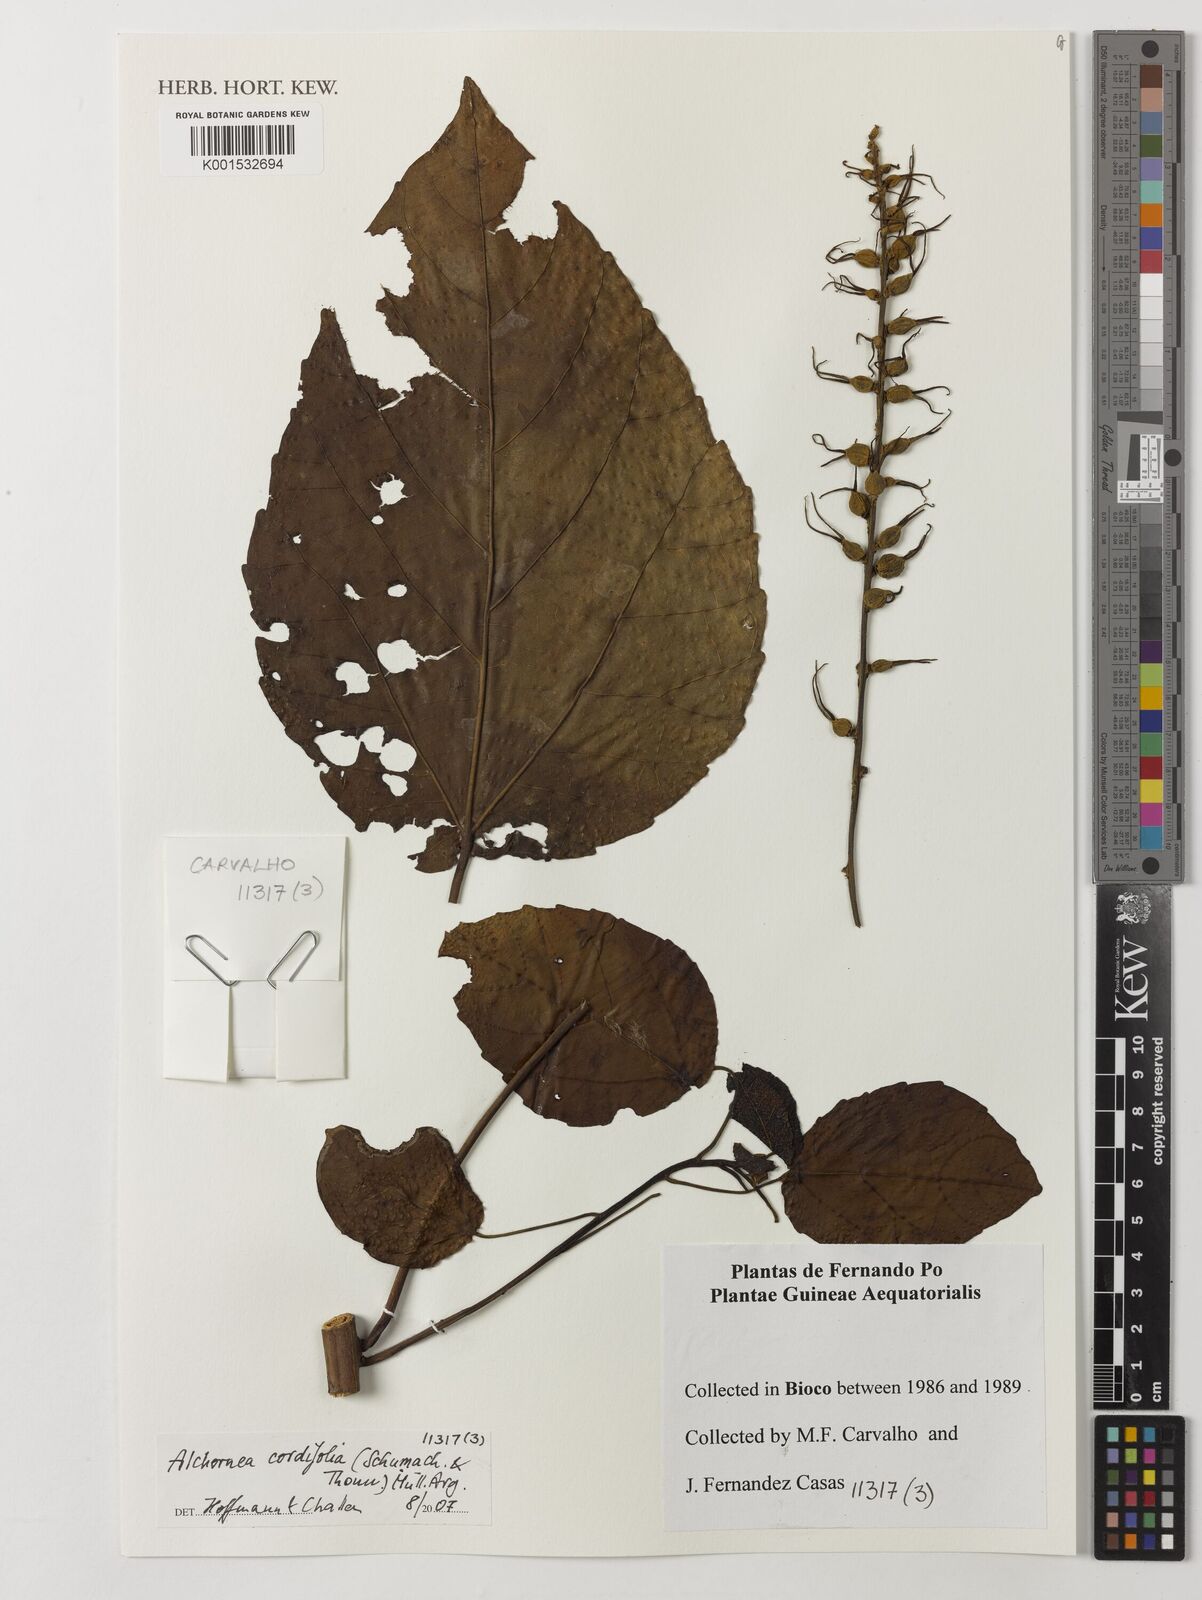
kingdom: Plantae
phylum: Tracheophyta
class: Magnoliopsida
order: Malpighiales
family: Euphorbiaceae
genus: Alchornea
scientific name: Alchornea cordifolia
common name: Christmasbush
